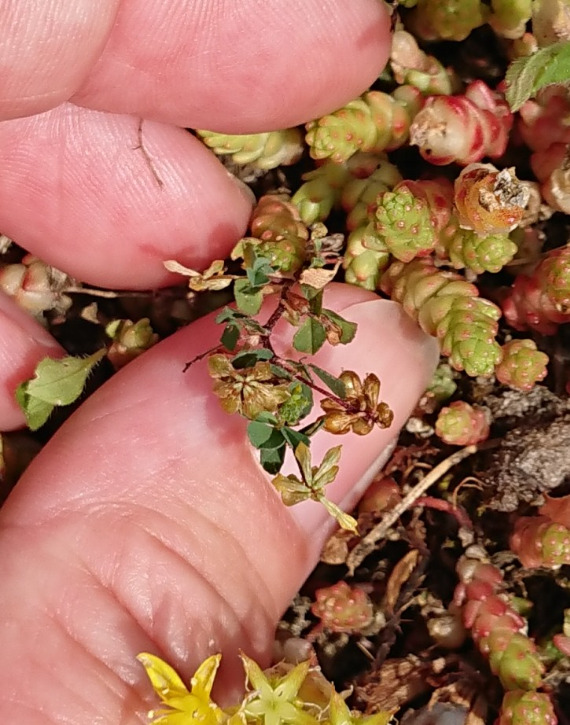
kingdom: Plantae
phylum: Tracheophyta
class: Magnoliopsida
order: Fabales
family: Fabaceae
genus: Trifolium
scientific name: Trifolium dubium
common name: Fin kløver
